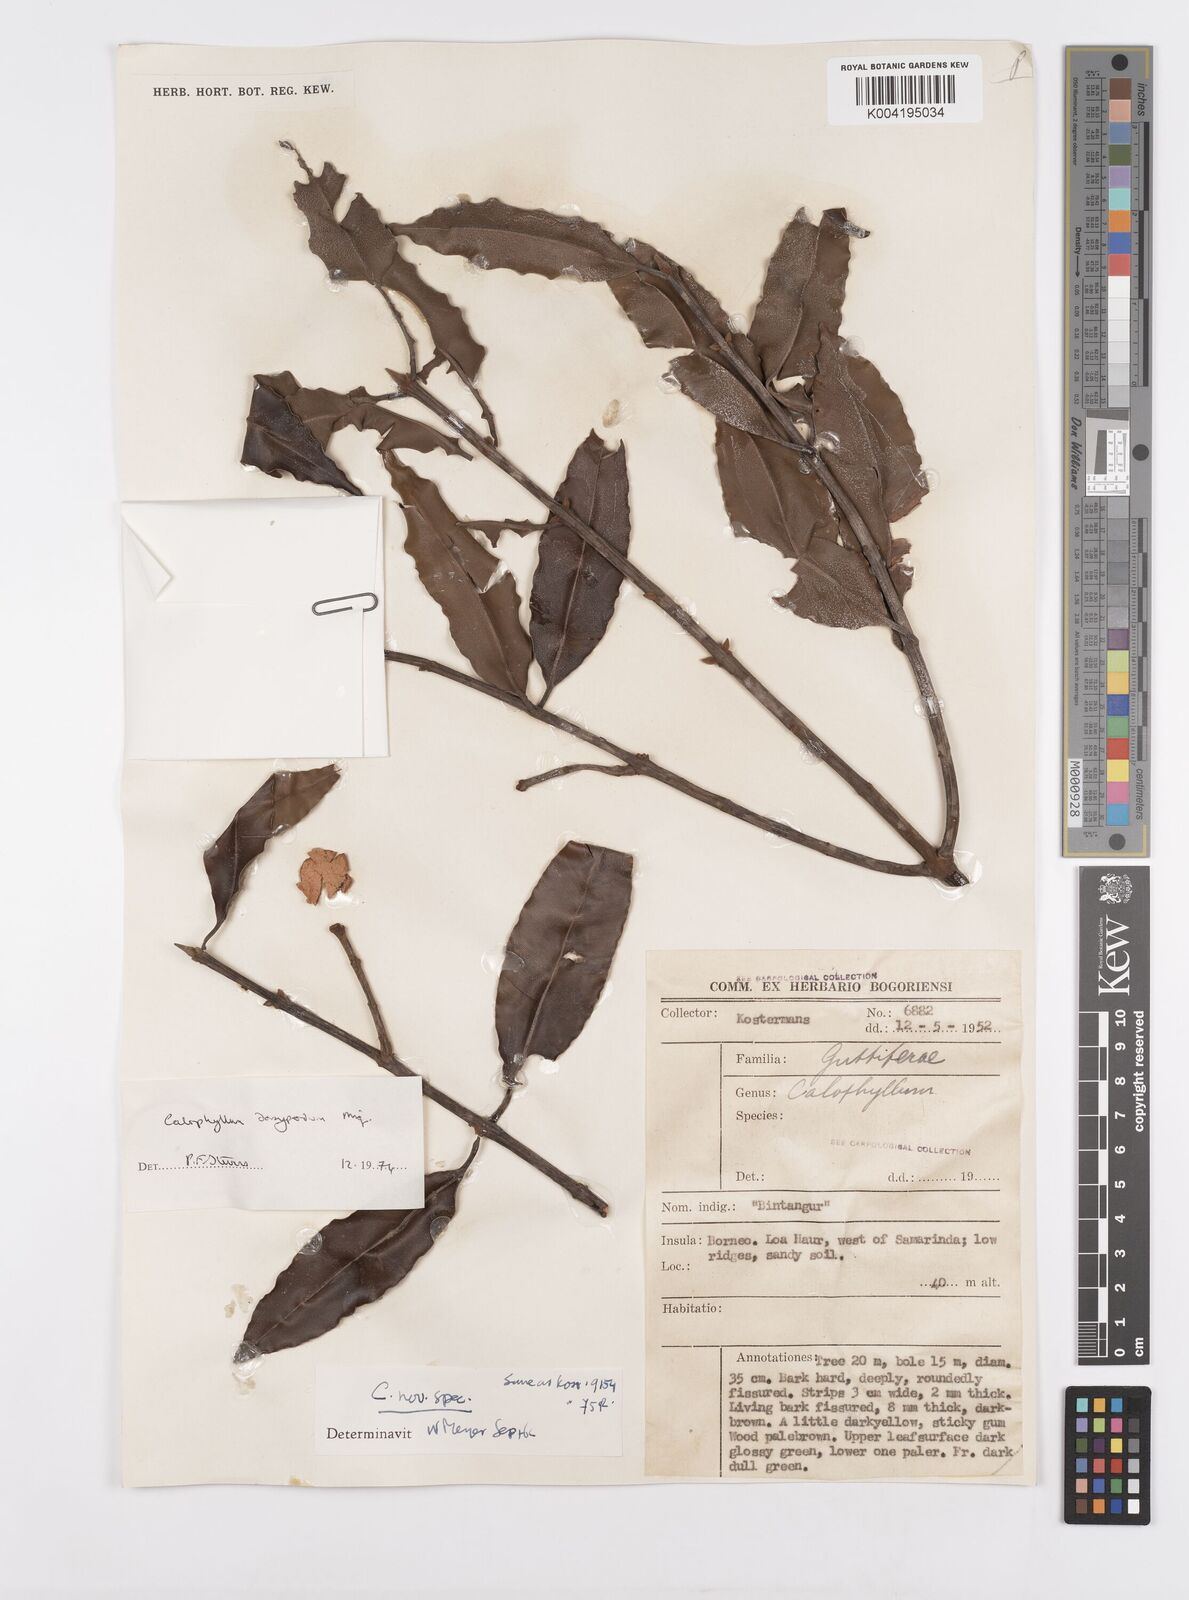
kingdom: Plantae
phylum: Tracheophyta
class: Magnoliopsida
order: Malpighiales
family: Calophyllaceae
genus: Calophyllum
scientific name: Calophyllum dasypodium
